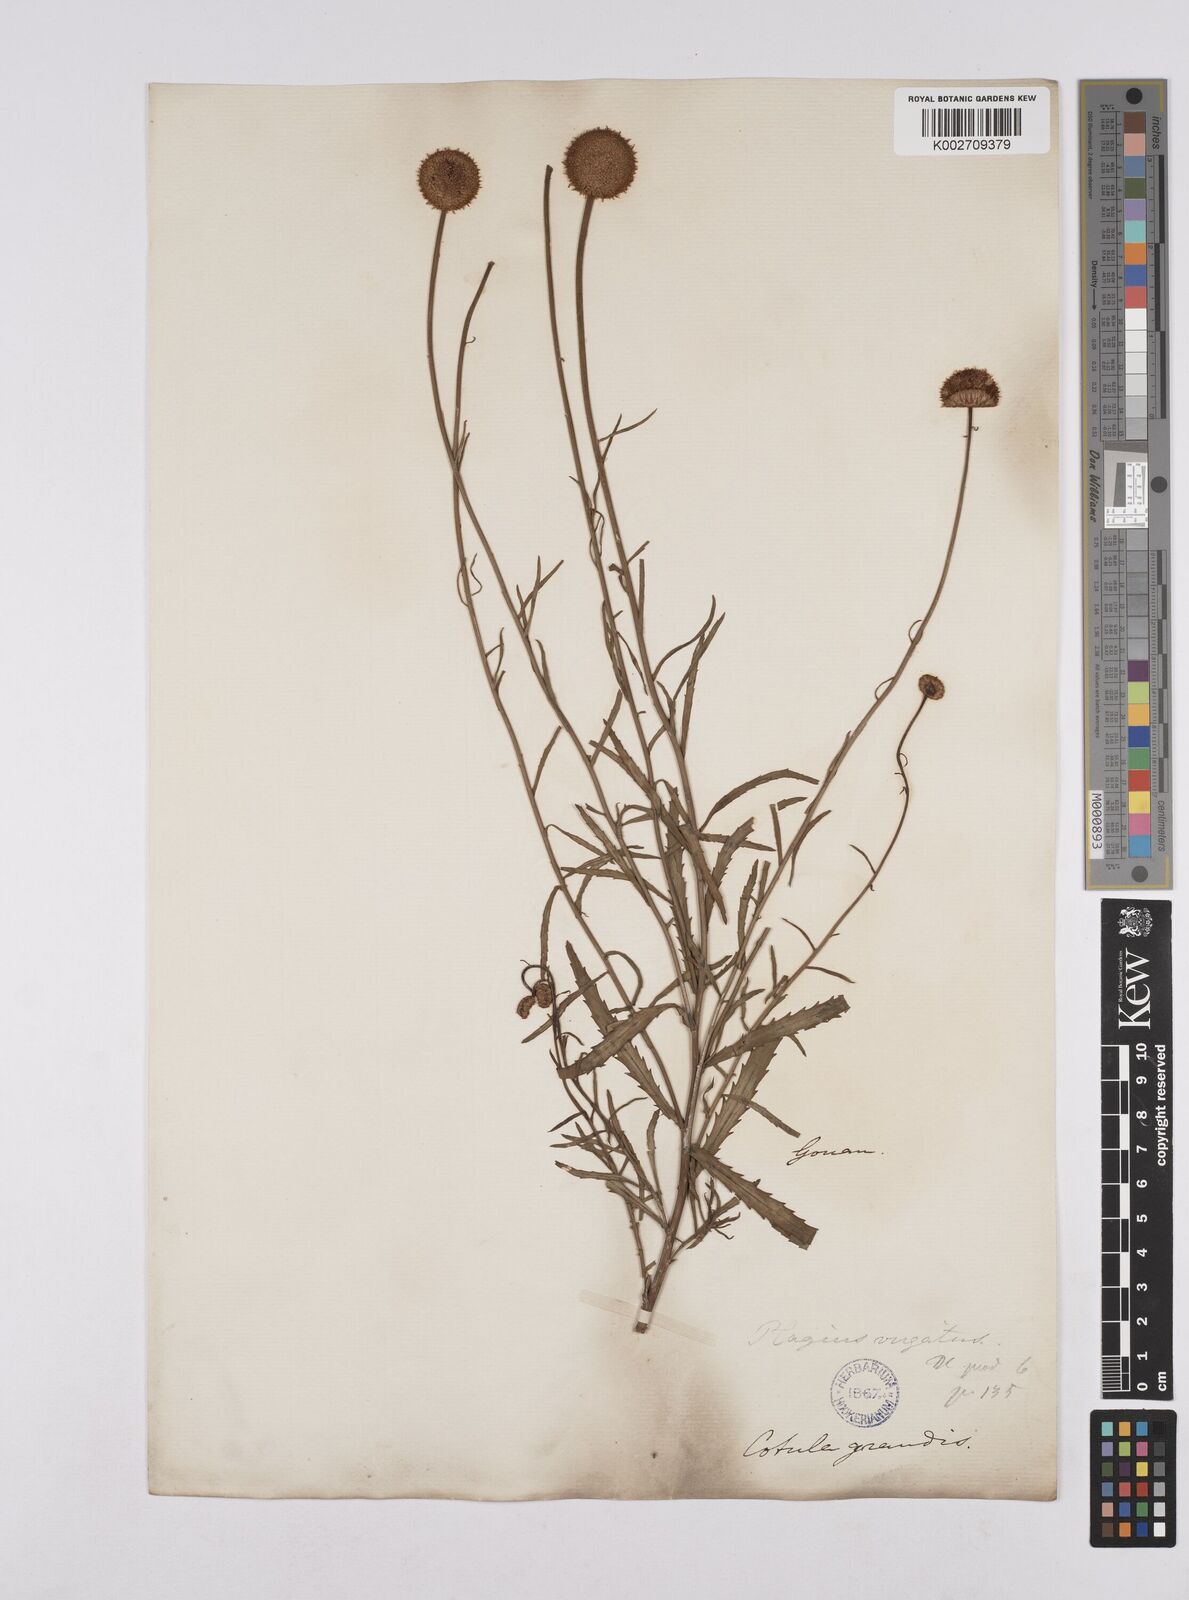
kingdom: Plantae
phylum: Tracheophyta
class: Magnoliopsida
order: Asterales
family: Asteraceae
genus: Leucanthemum
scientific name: Leucanthemum vulgare
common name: Oxeye daisy
